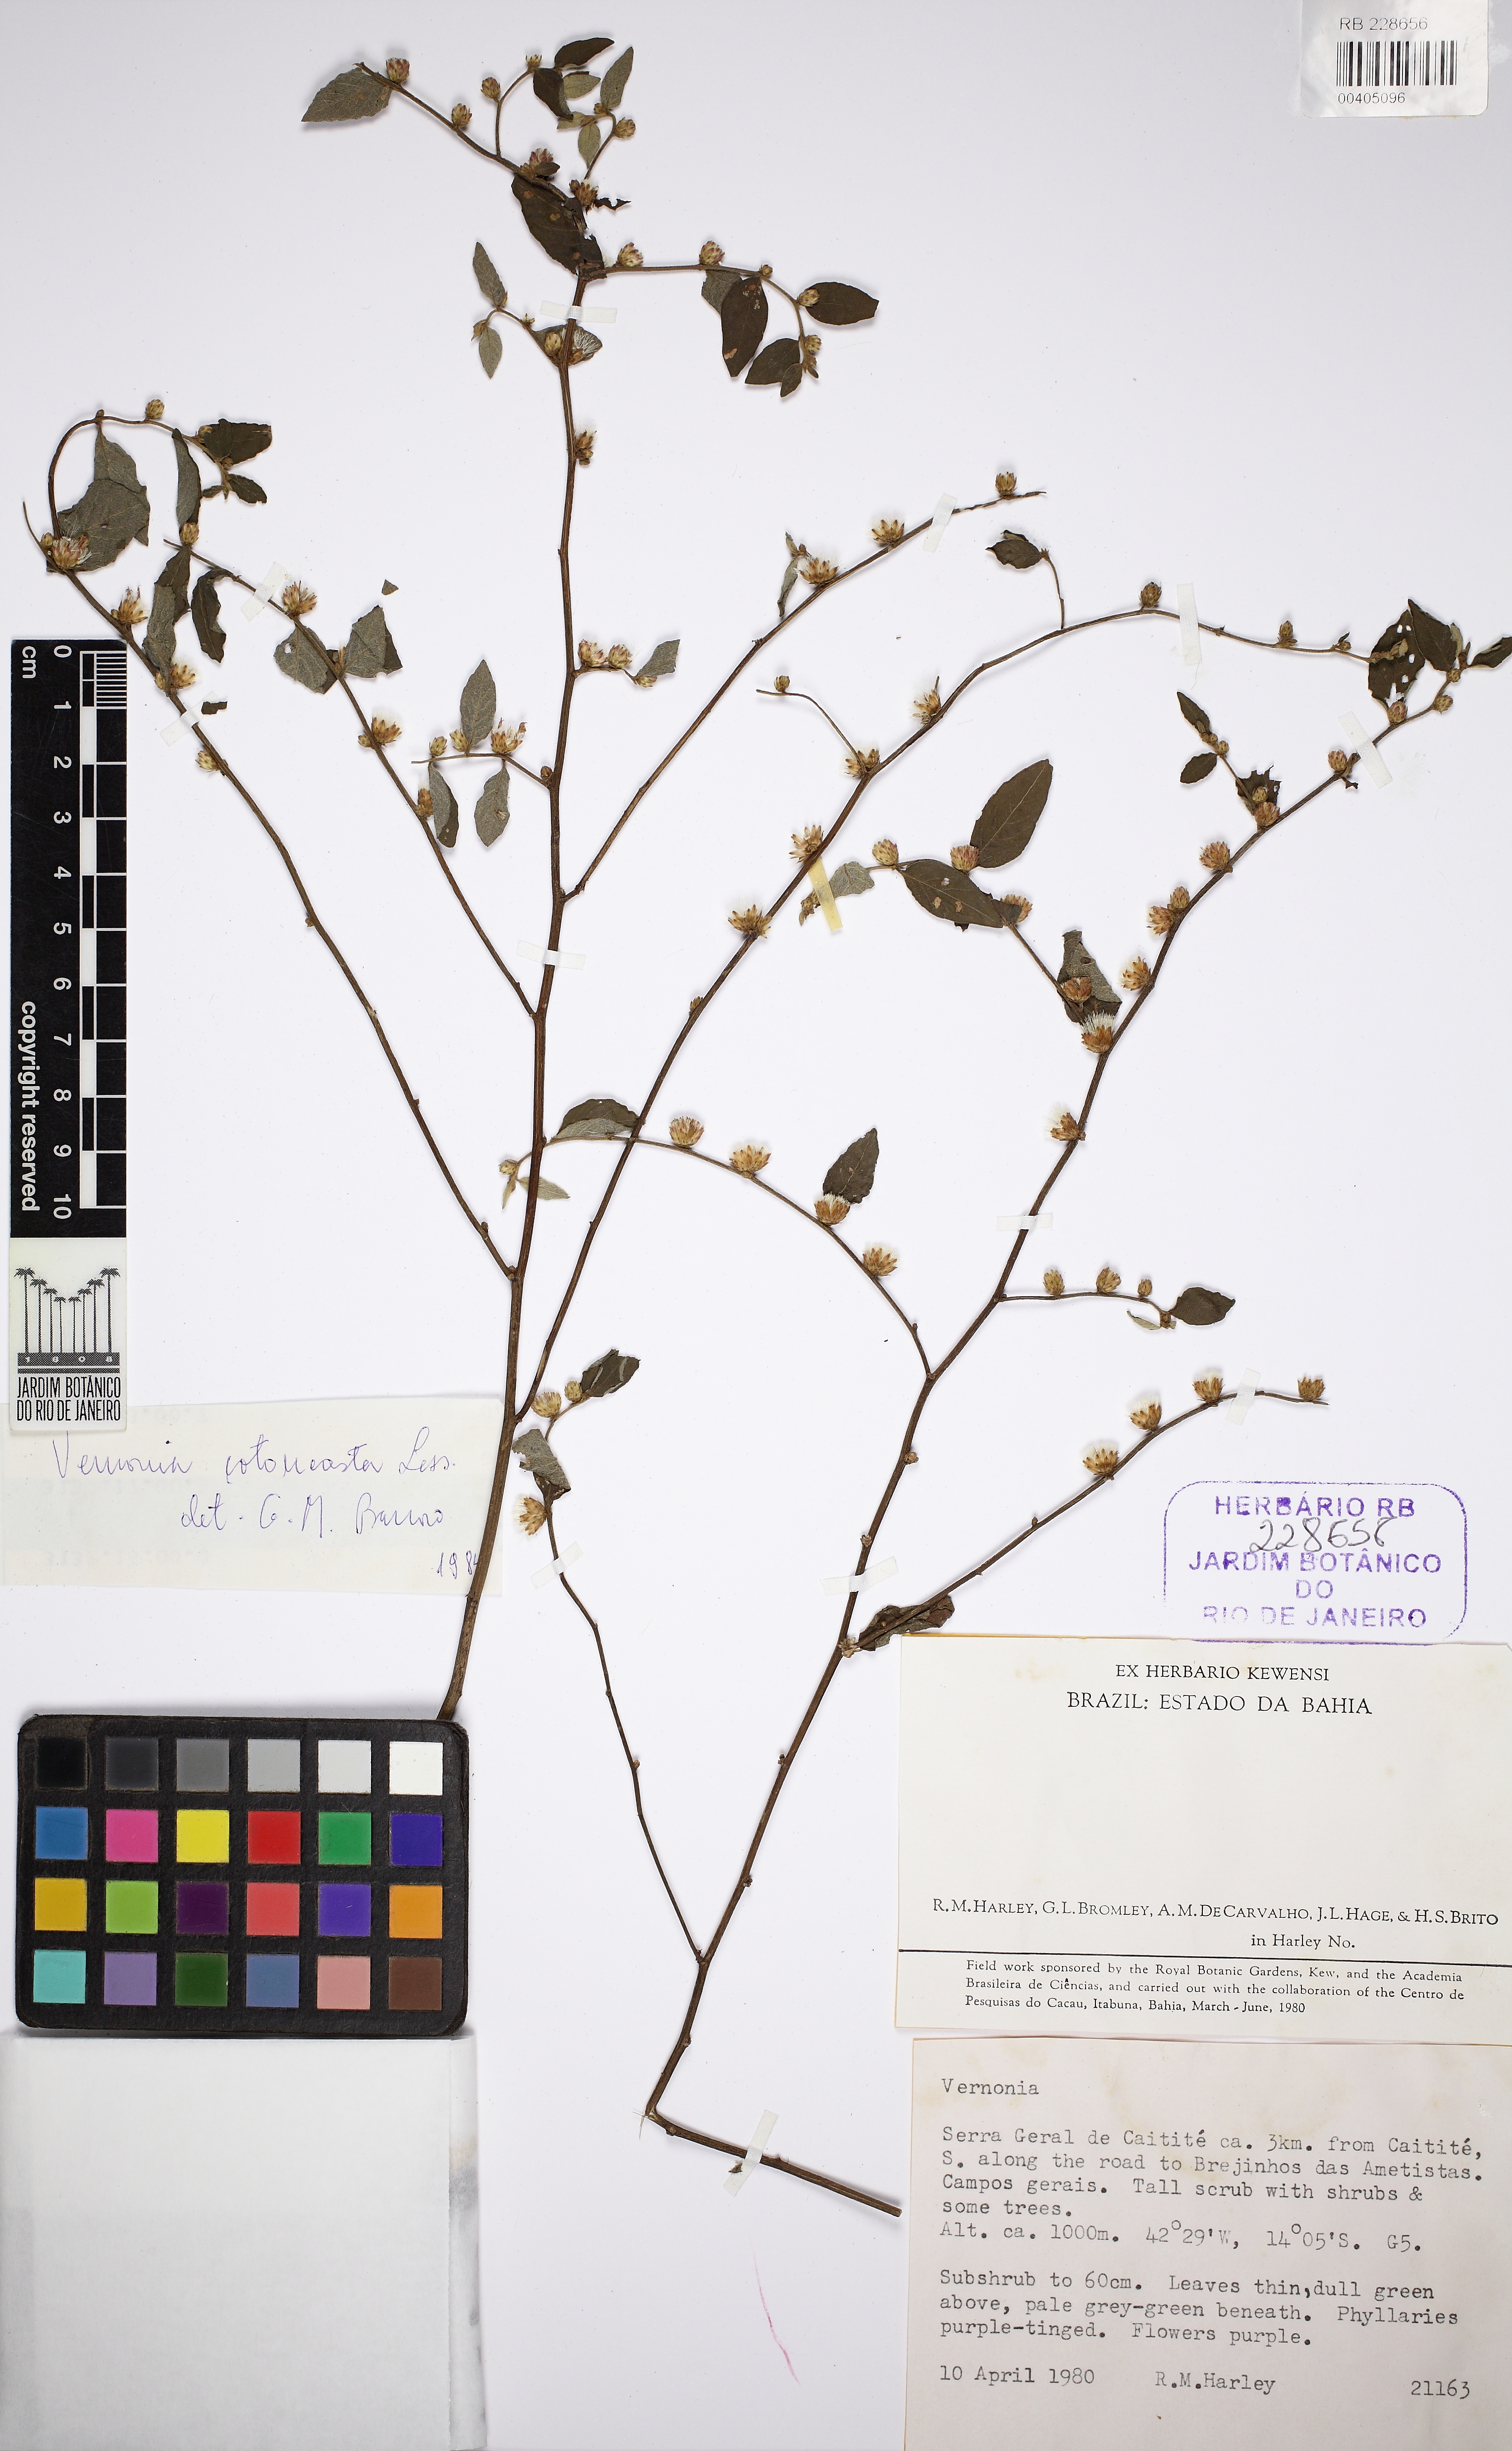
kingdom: Plantae
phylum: Tracheophyta
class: Magnoliopsida
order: Asterales
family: Asteraceae
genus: Lepidaploa
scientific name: Lepidaploa cotoneaster
